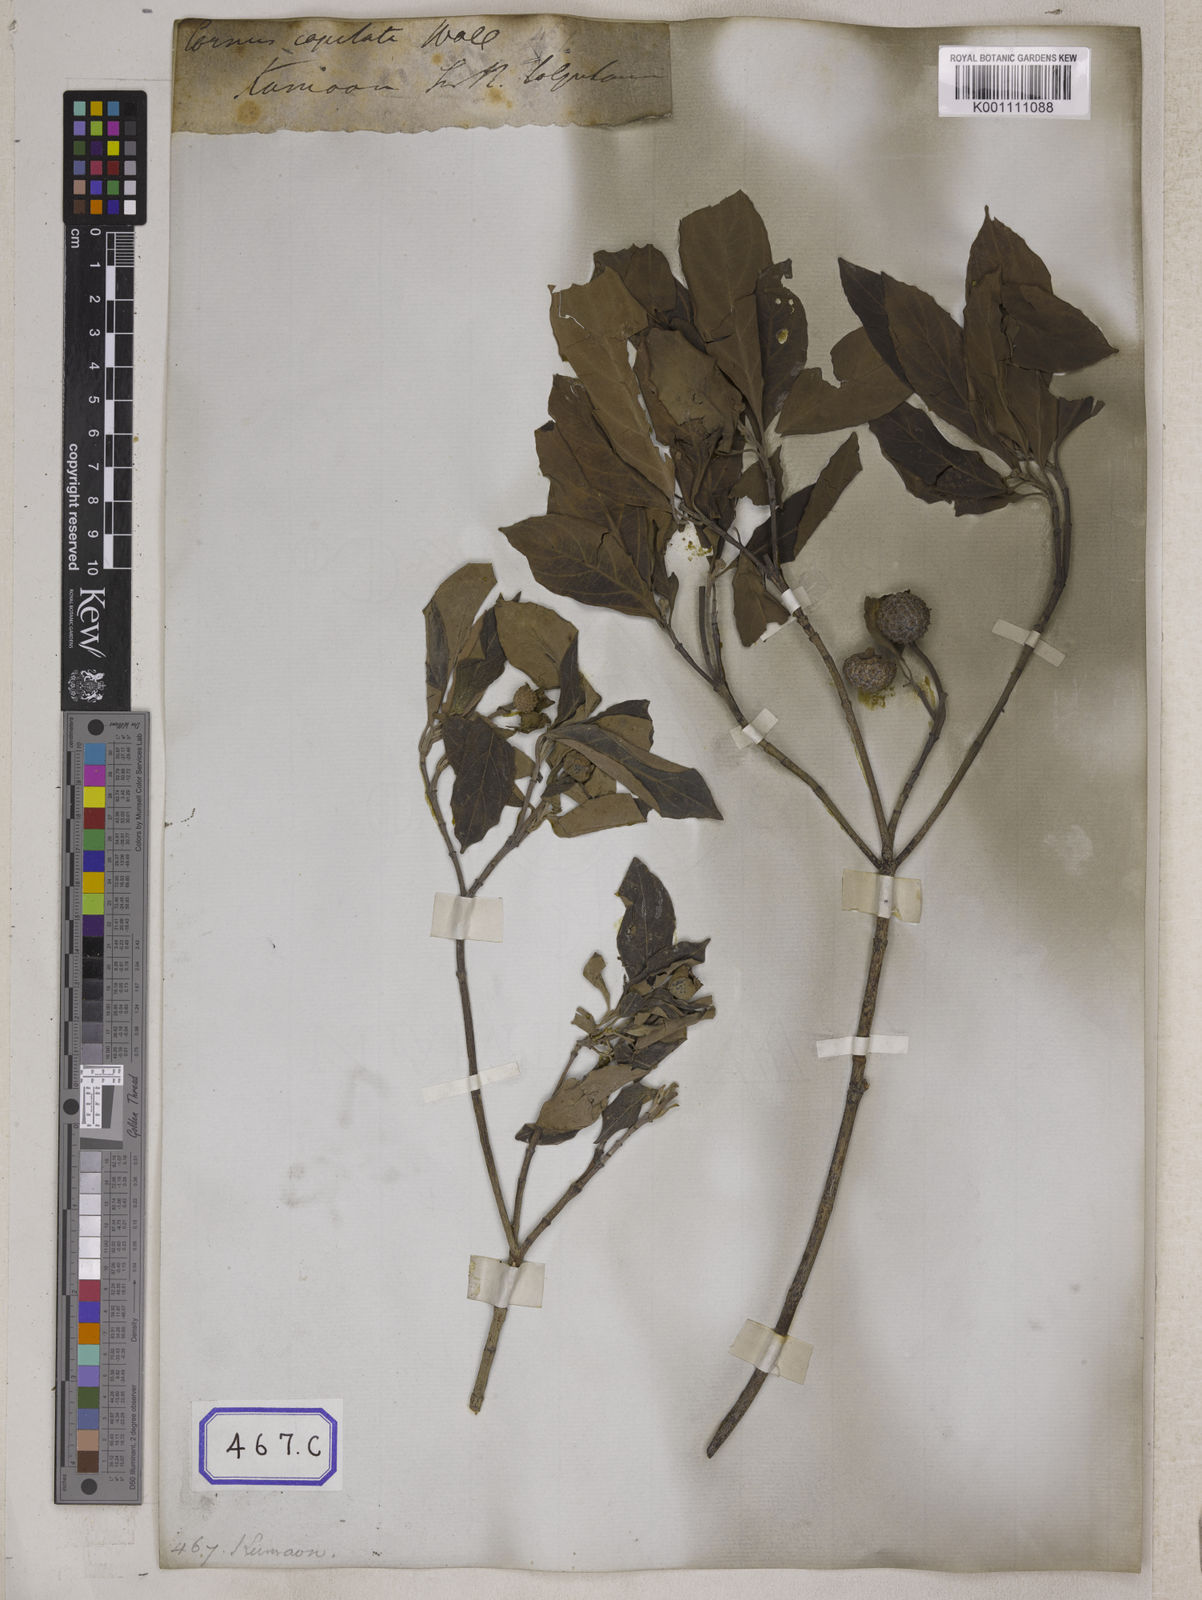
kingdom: Plantae
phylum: Tracheophyta
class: Magnoliopsida
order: Cornales
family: Cornaceae
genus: Cornus
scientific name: Cornus capitata
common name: Bentham's cornel
